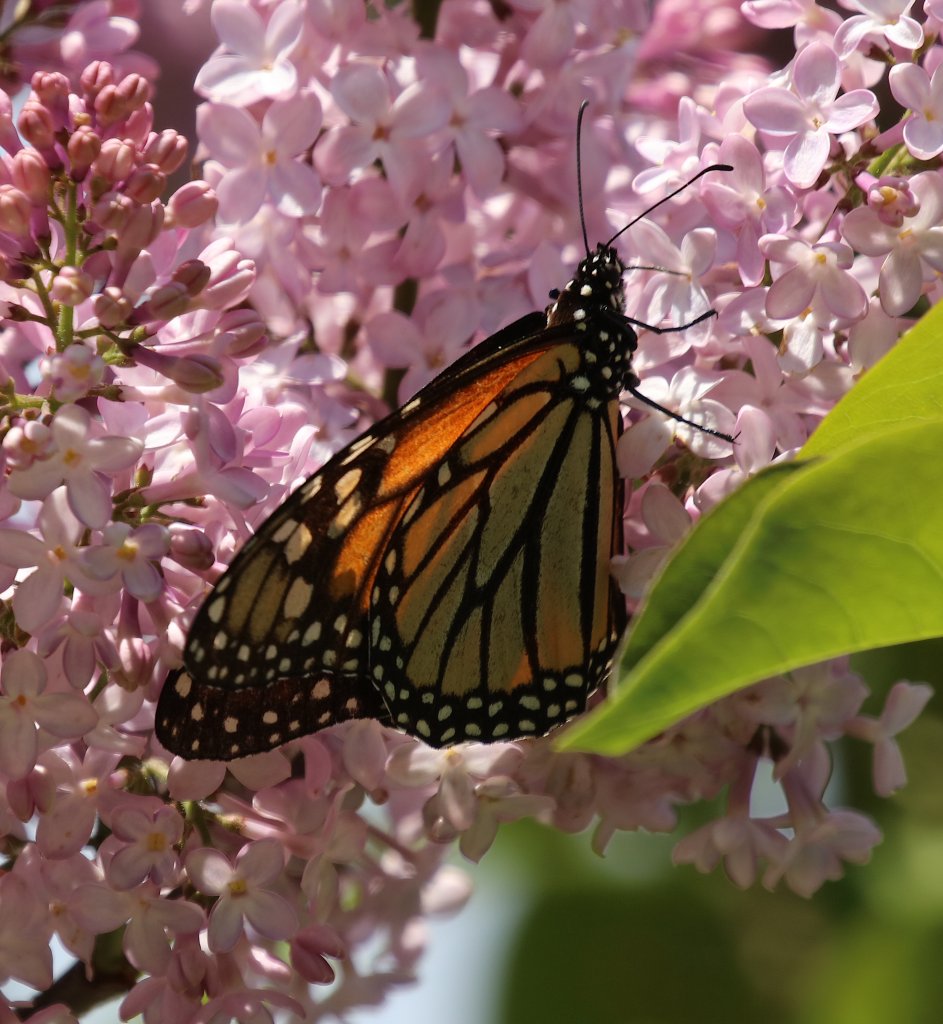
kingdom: Animalia
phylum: Arthropoda
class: Insecta
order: Lepidoptera
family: Nymphalidae
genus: Danaus
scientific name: Danaus plexippus
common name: Monarch
